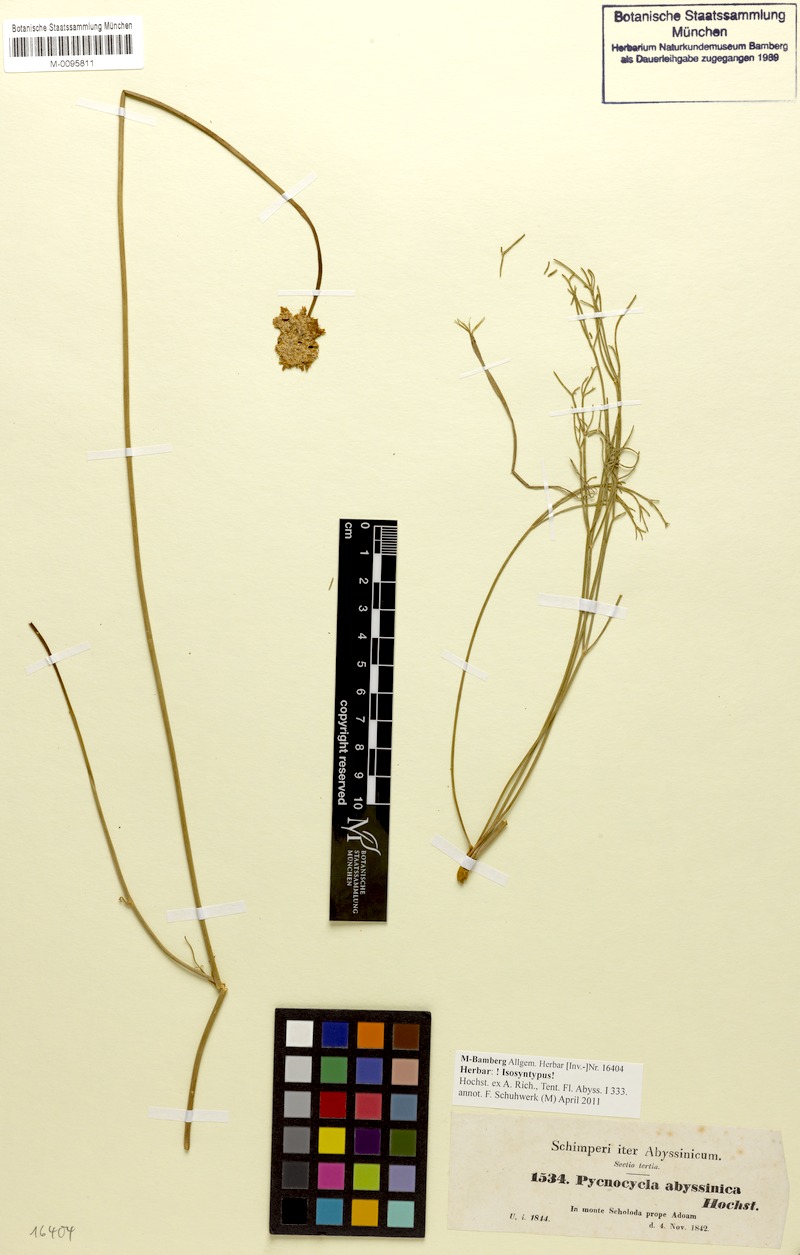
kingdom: Plantae
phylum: Tracheophyta
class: Magnoliopsida
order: Apiales
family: Apiaceae
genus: Pycnocycla
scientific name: Pycnocycla glauca
